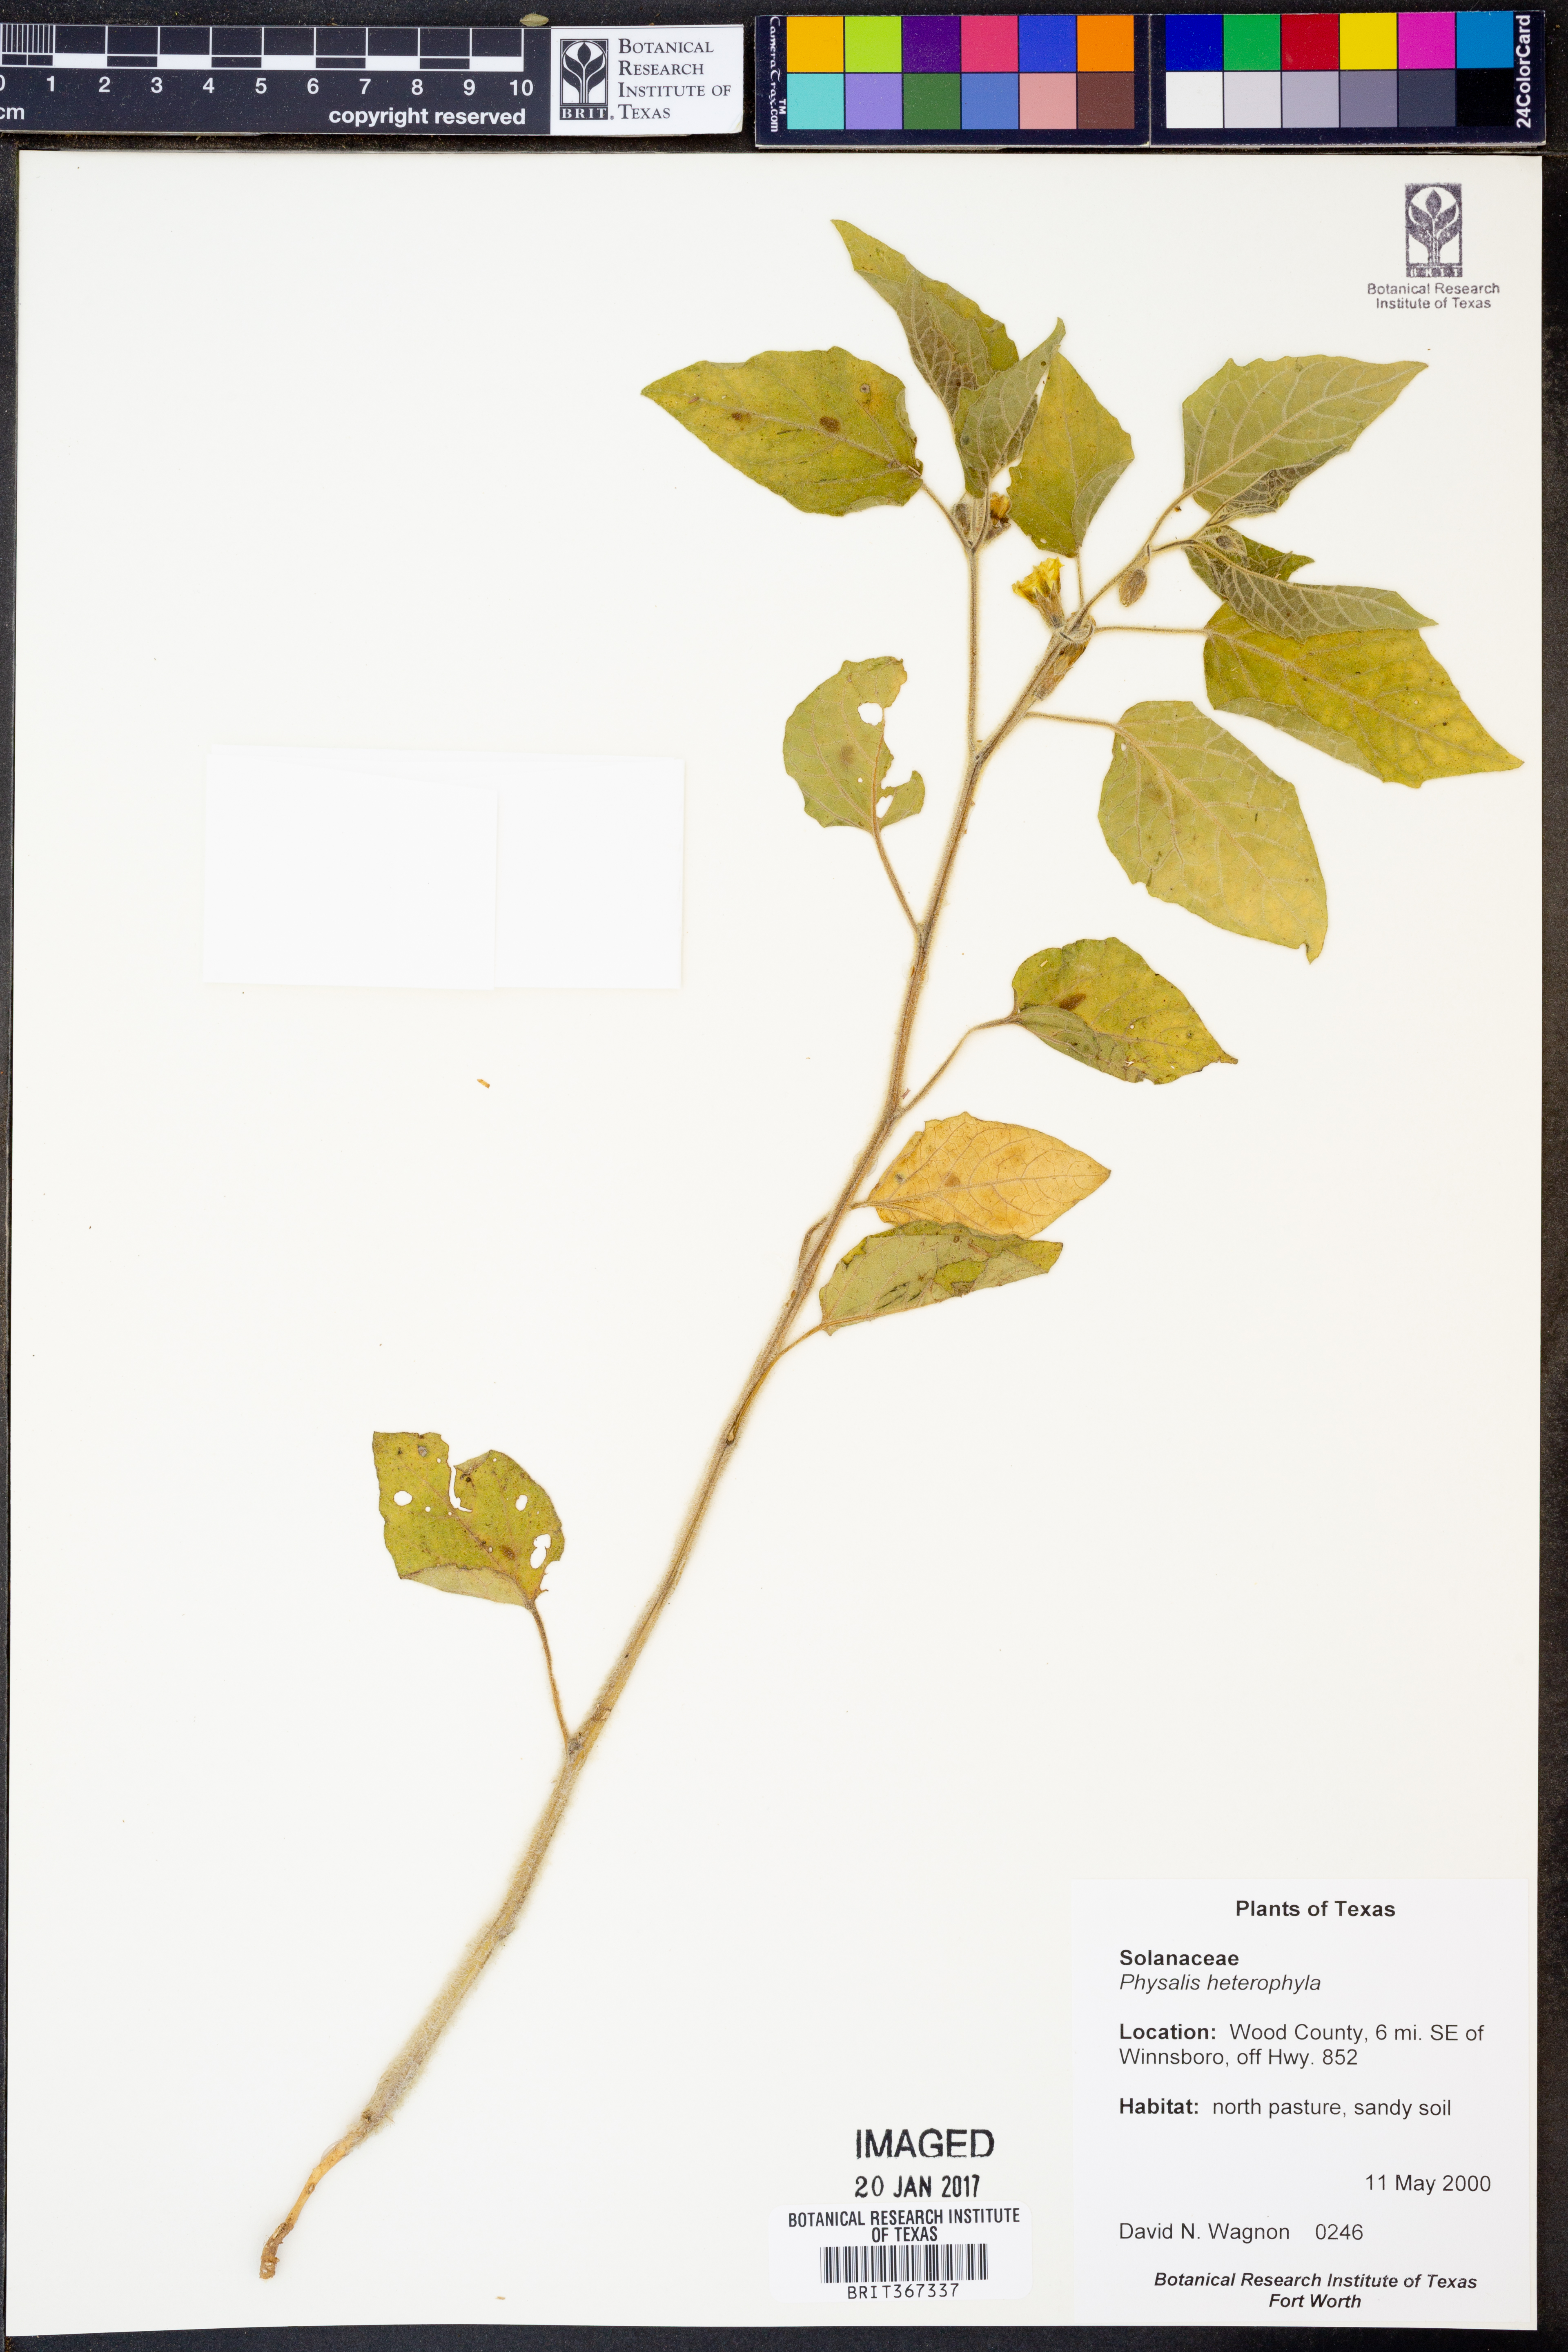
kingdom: Plantae
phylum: Tracheophyta
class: Magnoliopsida
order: Solanales
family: Solanaceae
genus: Physalis
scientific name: Physalis heterophylla
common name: Clammy ground-cherry
